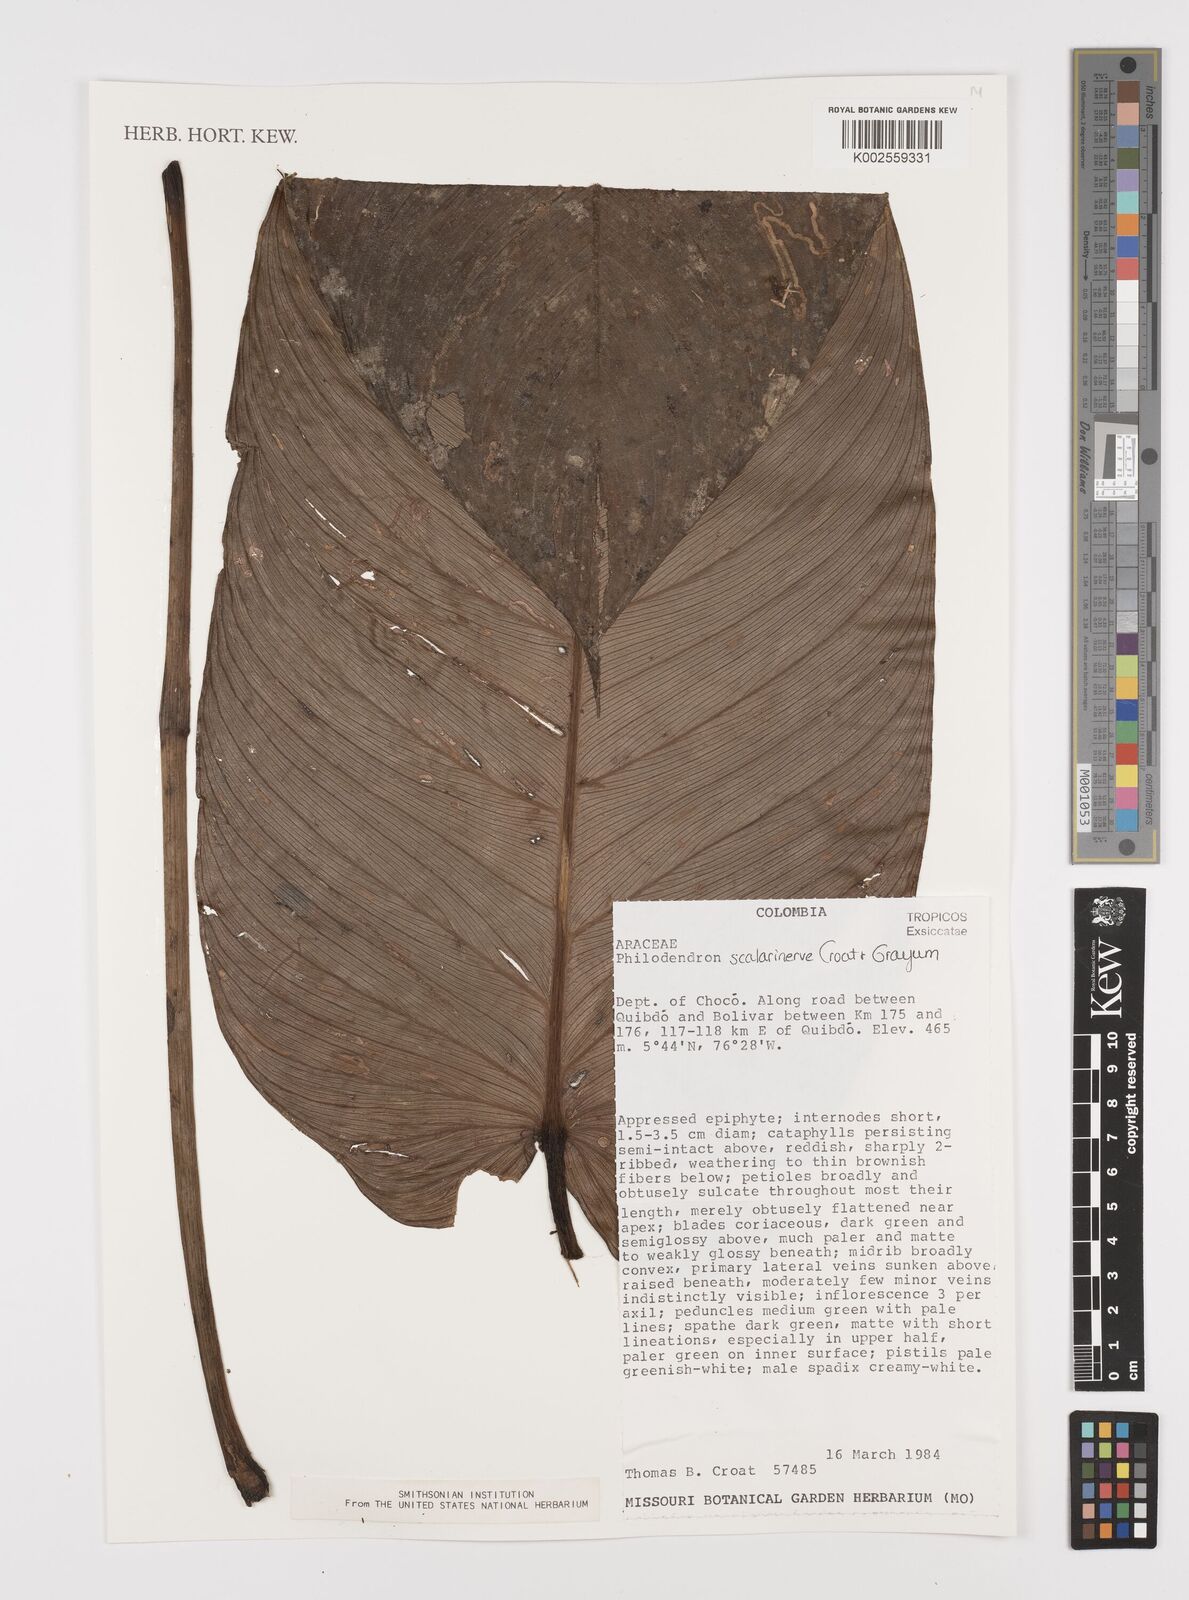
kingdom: Plantae
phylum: Tracheophyta
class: Liliopsida
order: Alismatales
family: Araceae
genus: Philodendron
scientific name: Philodendron scalarinerve
